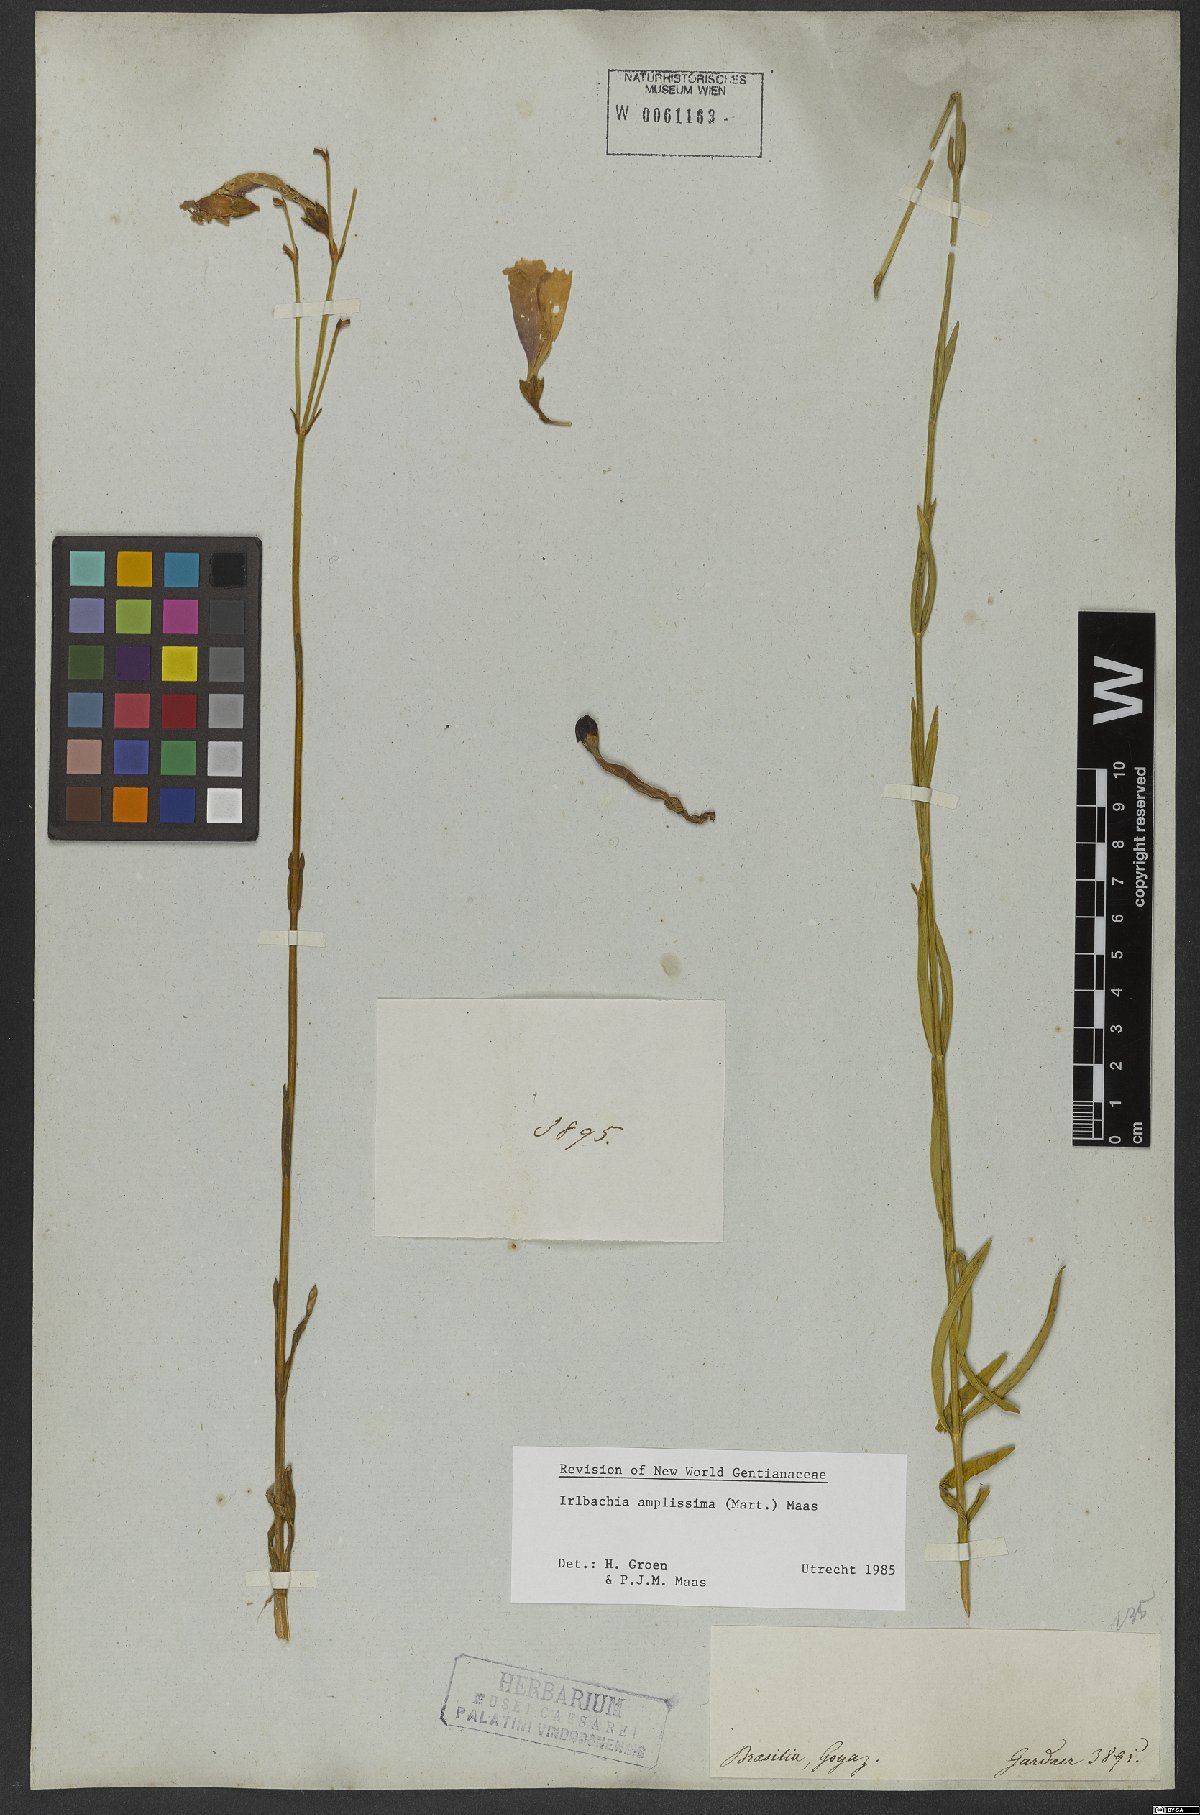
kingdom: Plantae
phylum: Tracheophyta
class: Magnoliopsida
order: Gentianales
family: Gentianaceae
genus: Calolisianthus
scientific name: Calolisianthus amplissimus
